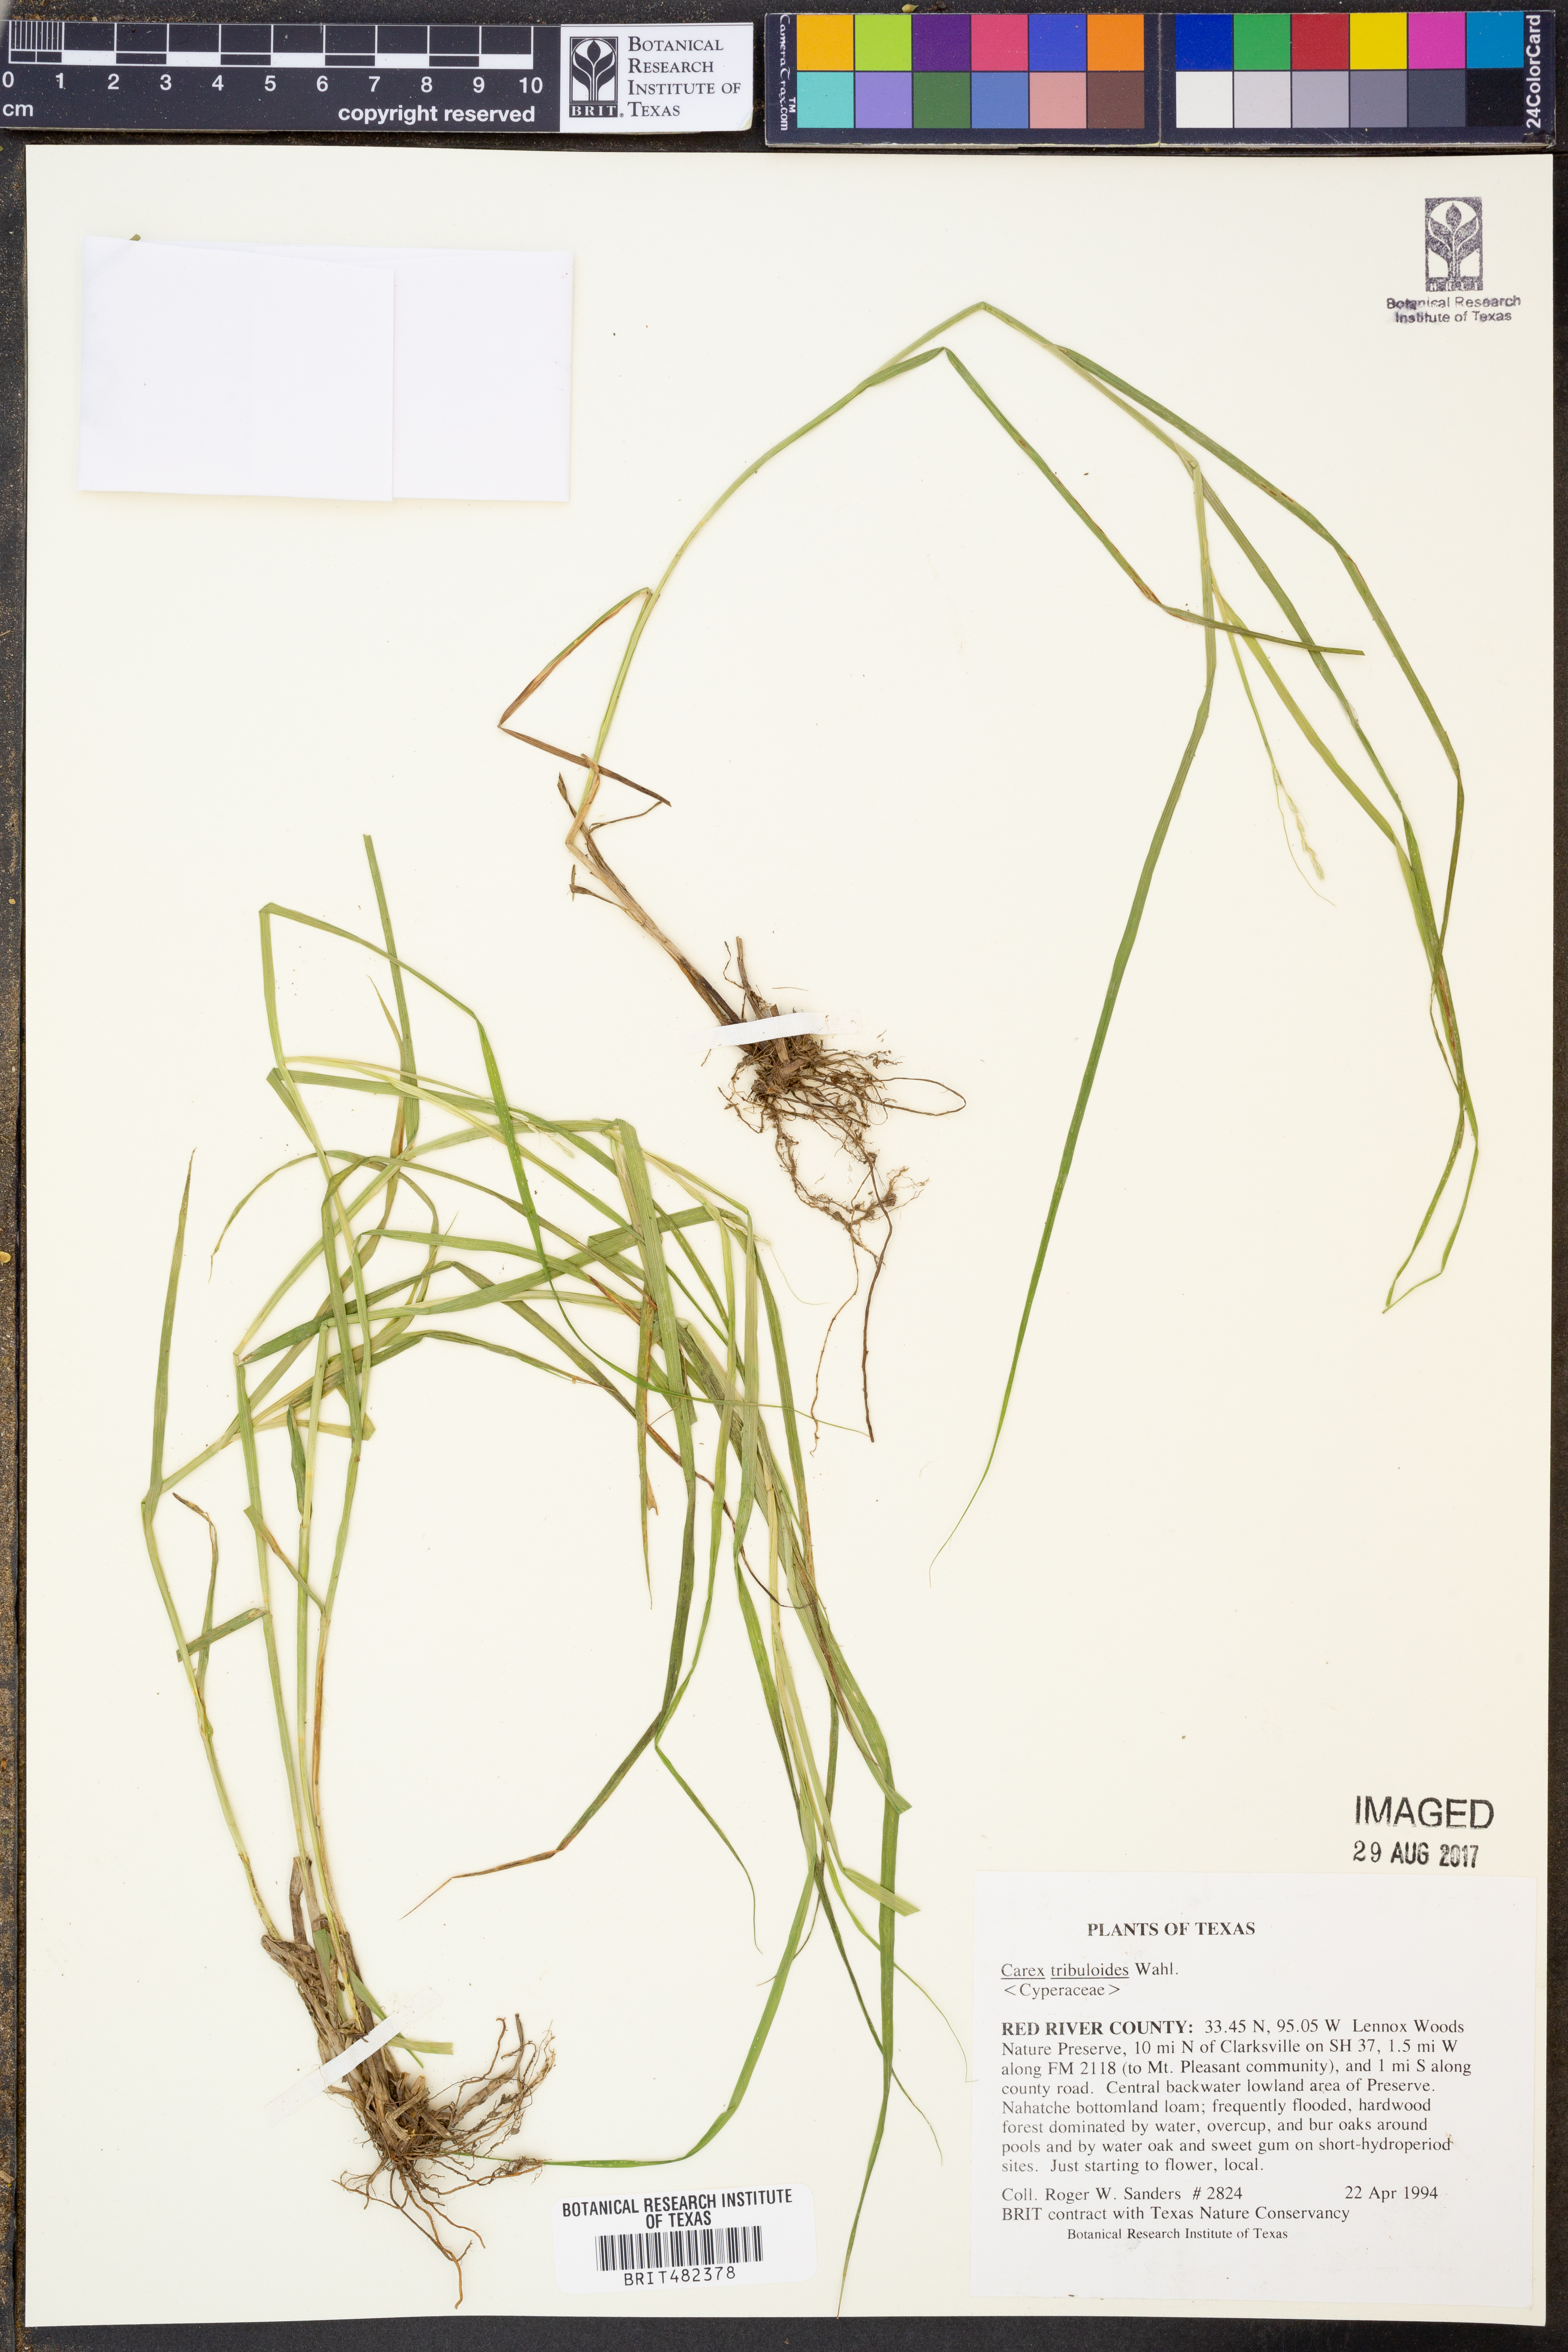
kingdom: Plantae
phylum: Tracheophyta
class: Liliopsida
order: Poales
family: Cyperaceae
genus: Carex
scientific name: Carex tribuloides
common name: Blunt broom sedge
